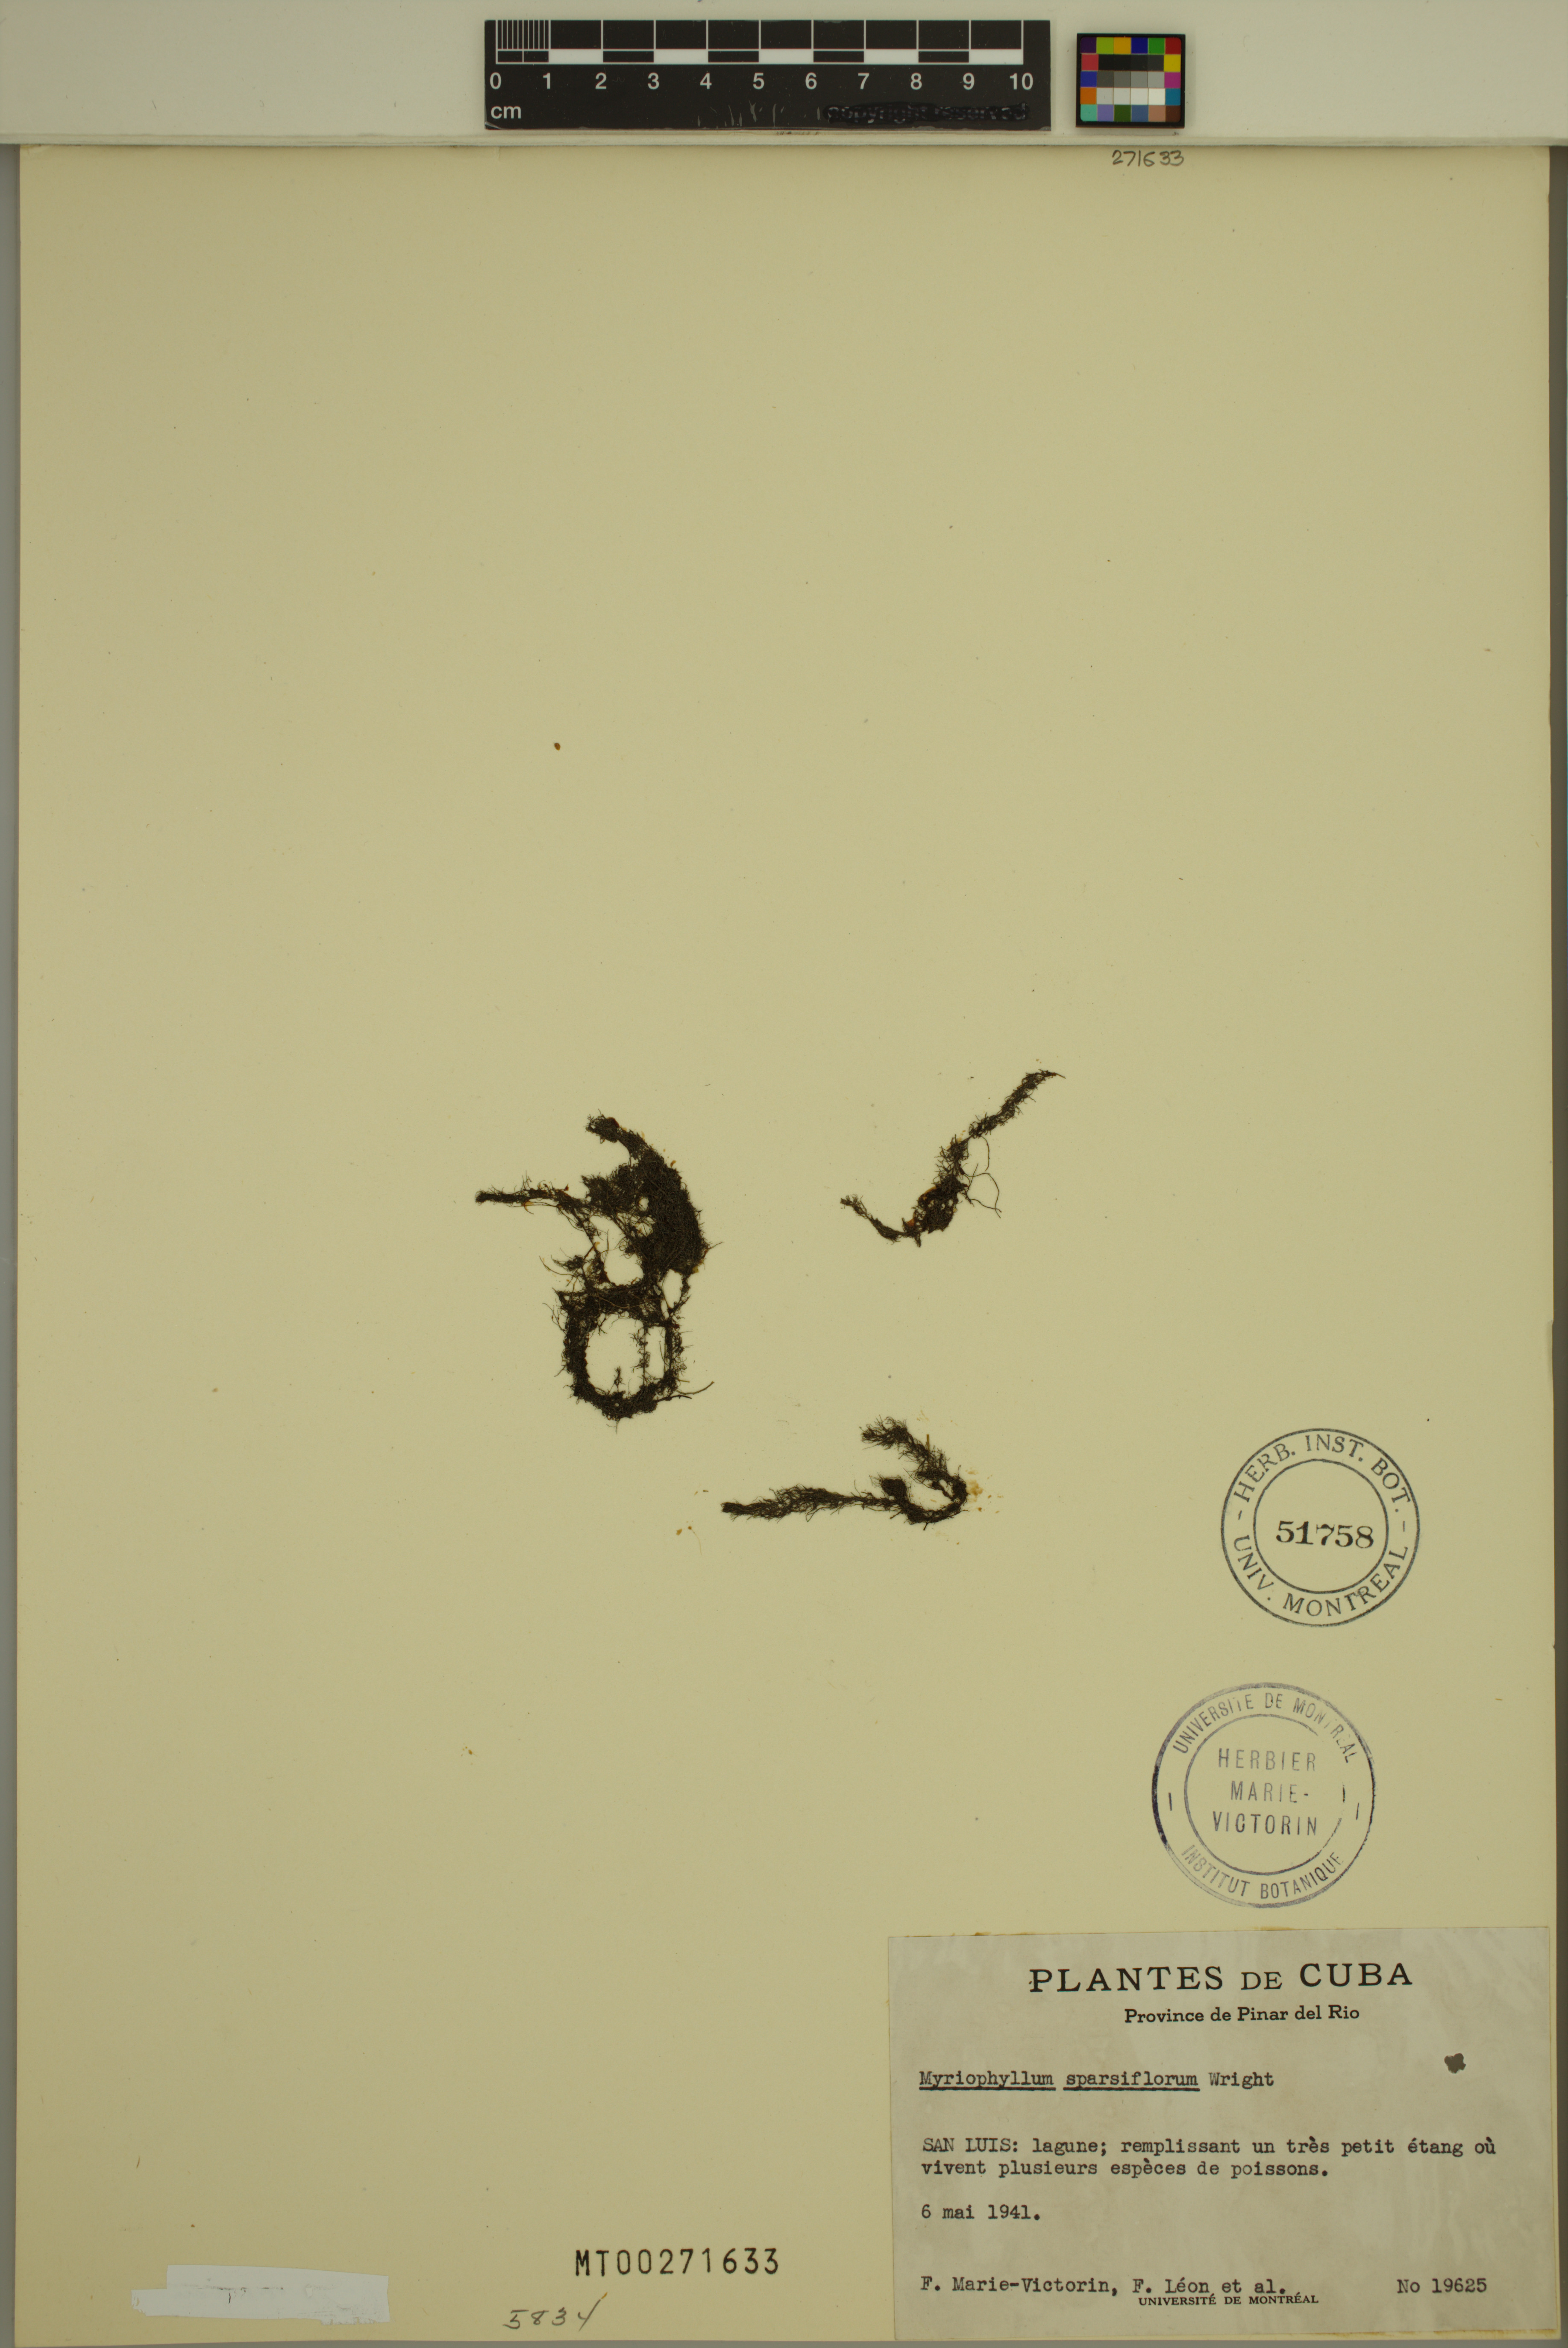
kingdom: Plantae
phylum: Tracheophyta
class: Magnoliopsida
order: Saxifragales
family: Haloragaceae
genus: Myriophyllum
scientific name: Myriophyllum sparsiflorum
